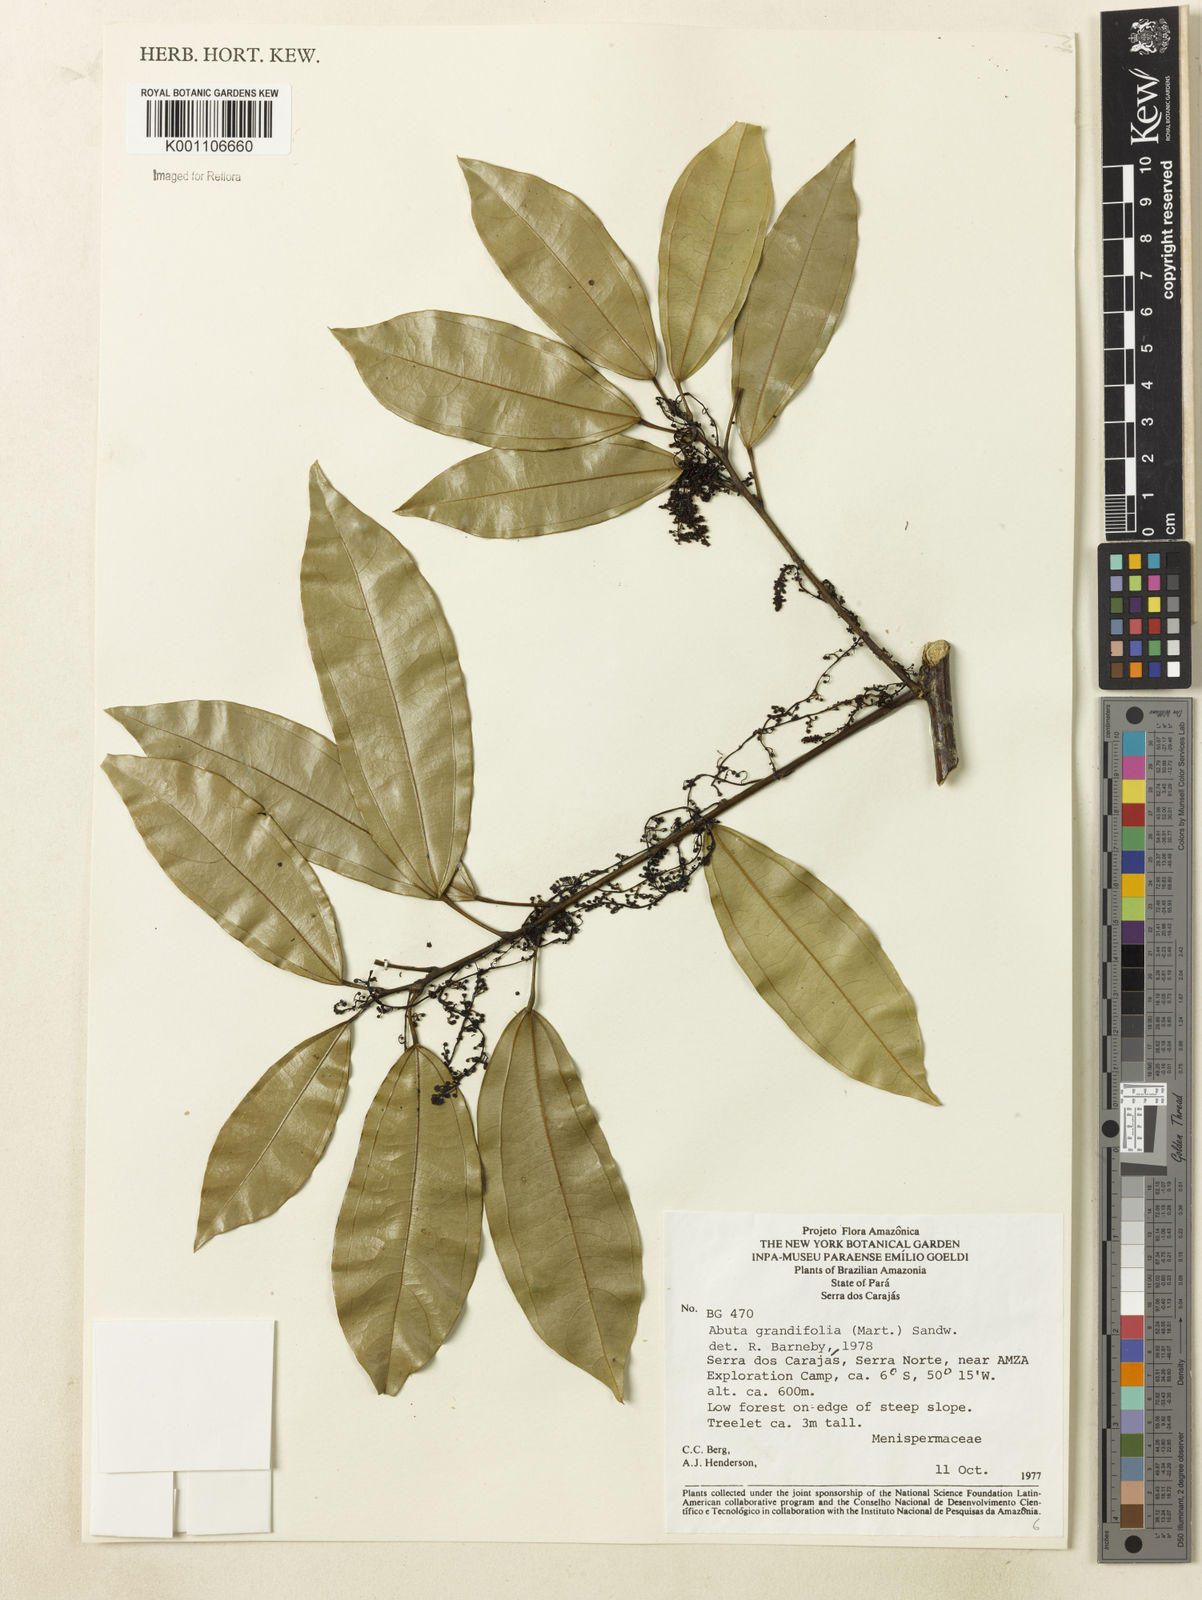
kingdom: Plantae
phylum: Tracheophyta
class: Magnoliopsida
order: Ranunculales
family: Menispermaceae
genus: Abuta
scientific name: Abuta grandifolia
